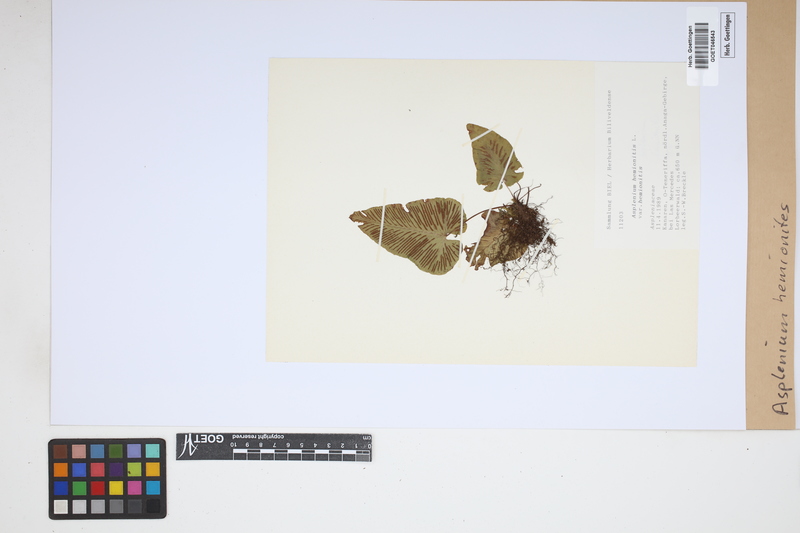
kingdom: Plantae
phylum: Tracheophyta
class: Polypodiopsida
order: Polypodiales
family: Aspleniaceae
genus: Asplenium
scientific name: Asplenium hemionitis
